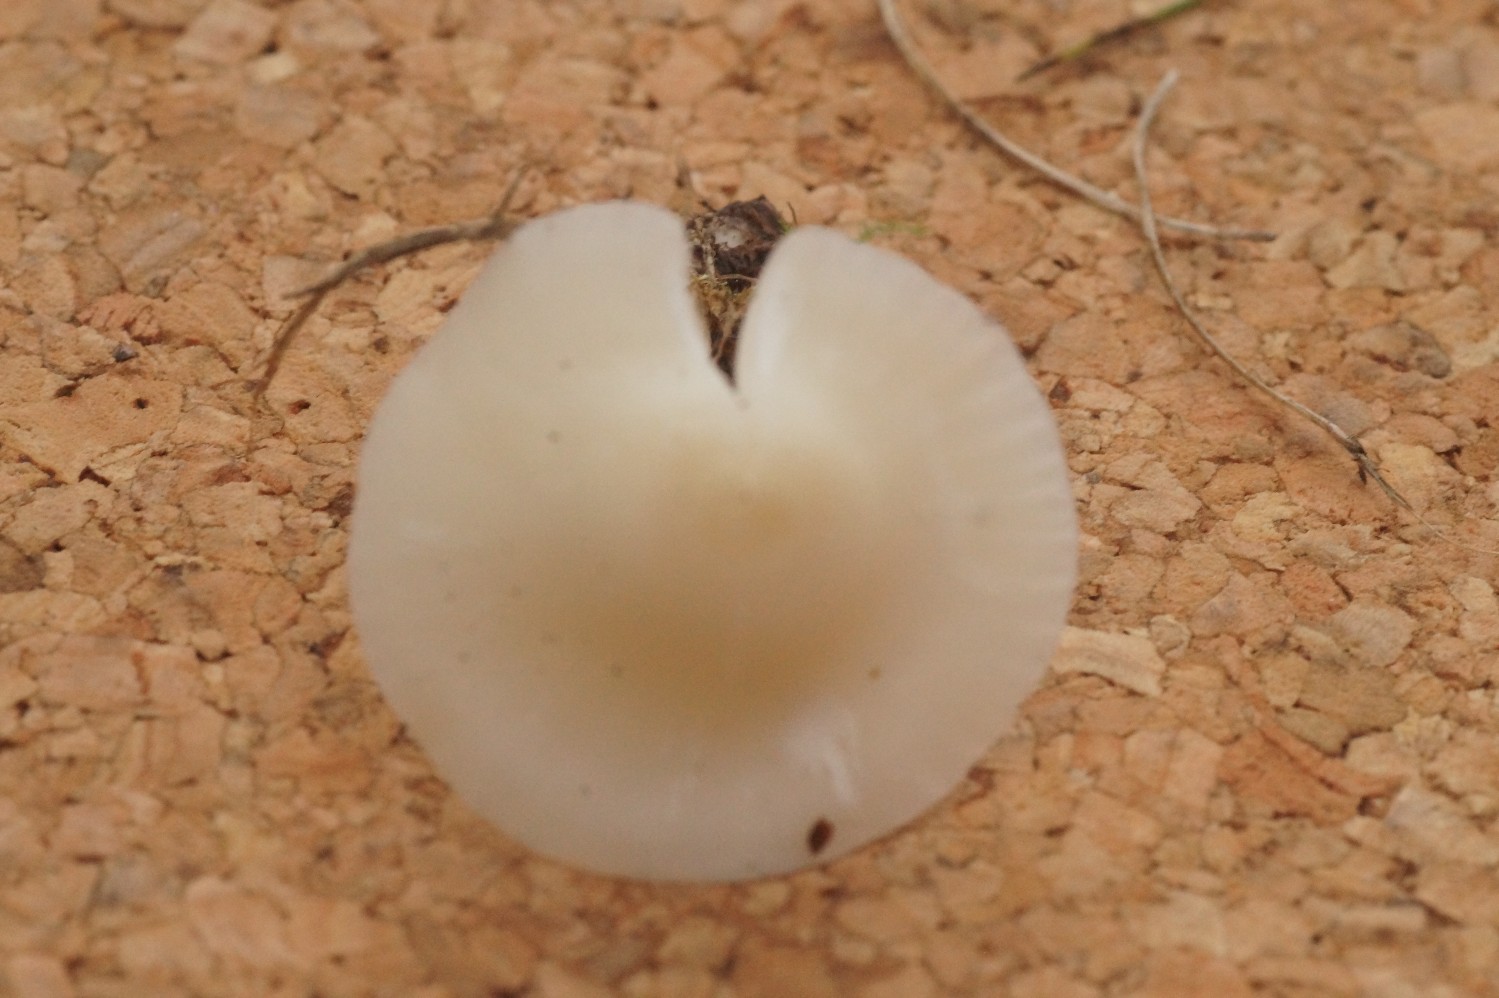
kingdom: Fungi
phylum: Basidiomycota
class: Agaricomycetes
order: Agaricales
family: Hygrophoraceae
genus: Cuphophyllus
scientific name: Cuphophyllus virgineus
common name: snehvid vokshat
